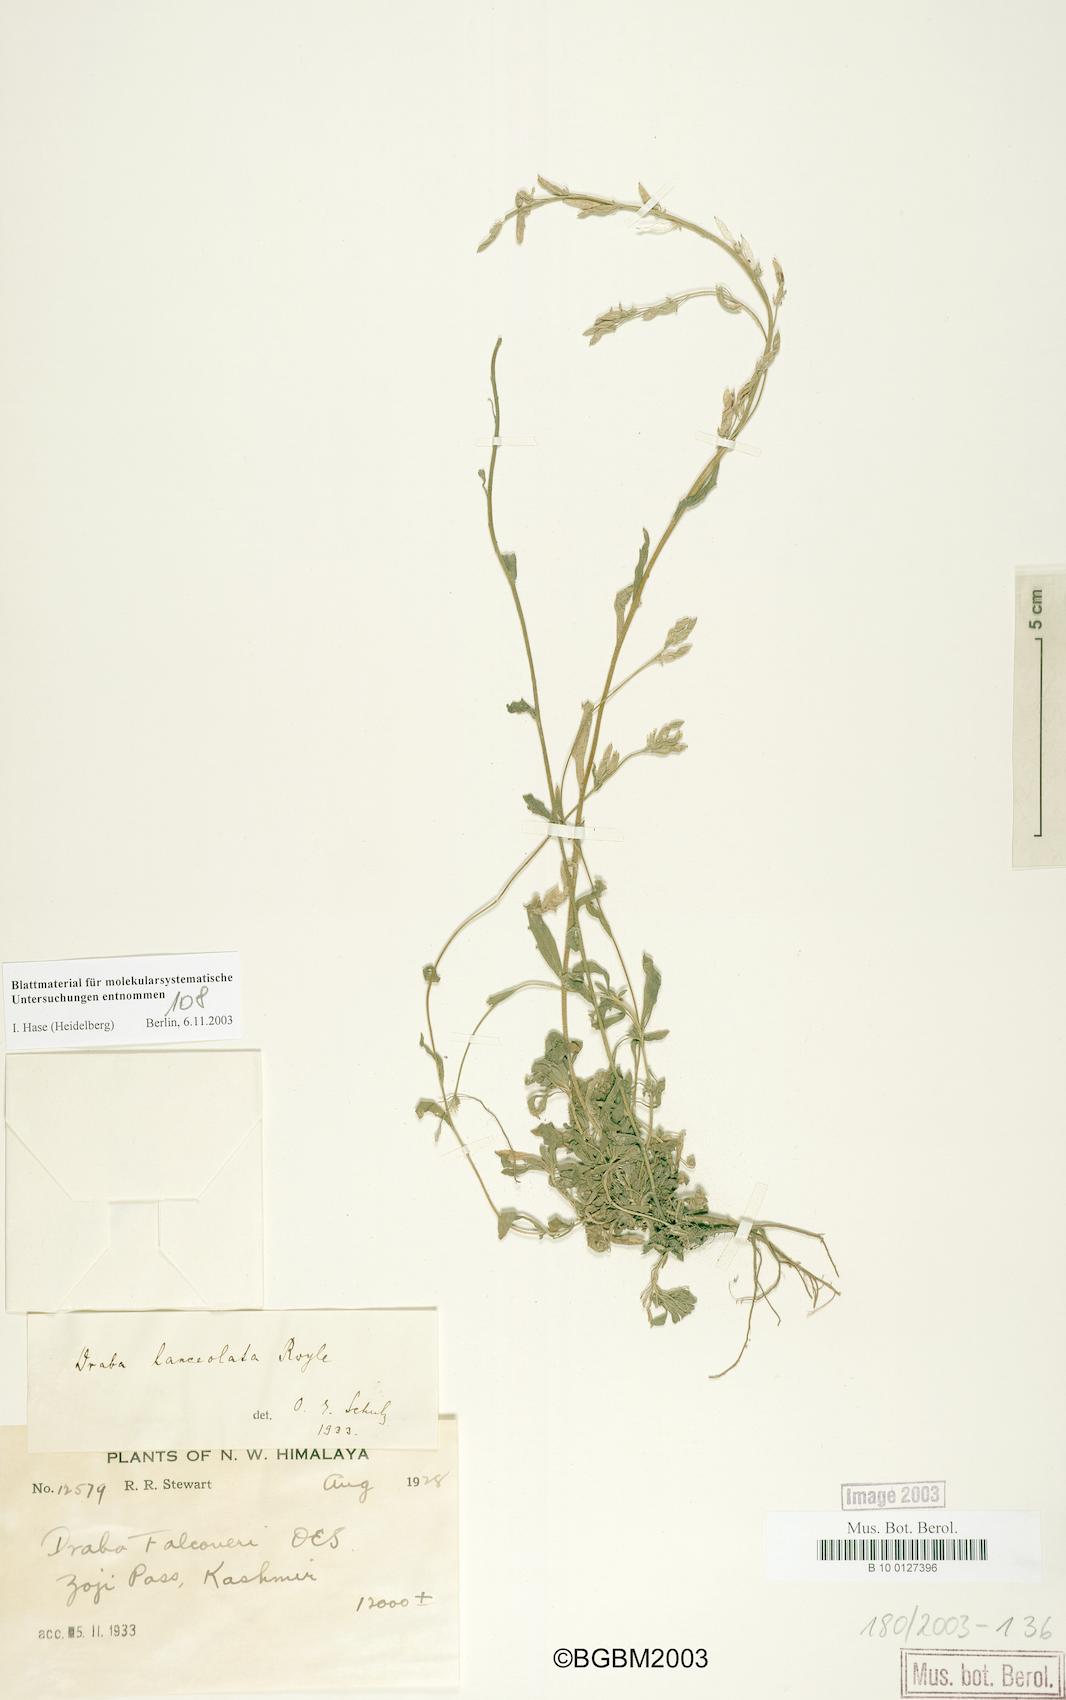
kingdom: Plantae
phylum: Tracheophyta
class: Magnoliopsida
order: Brassicales
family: Brassicaceae
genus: Draba
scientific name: Draba lanceolata
